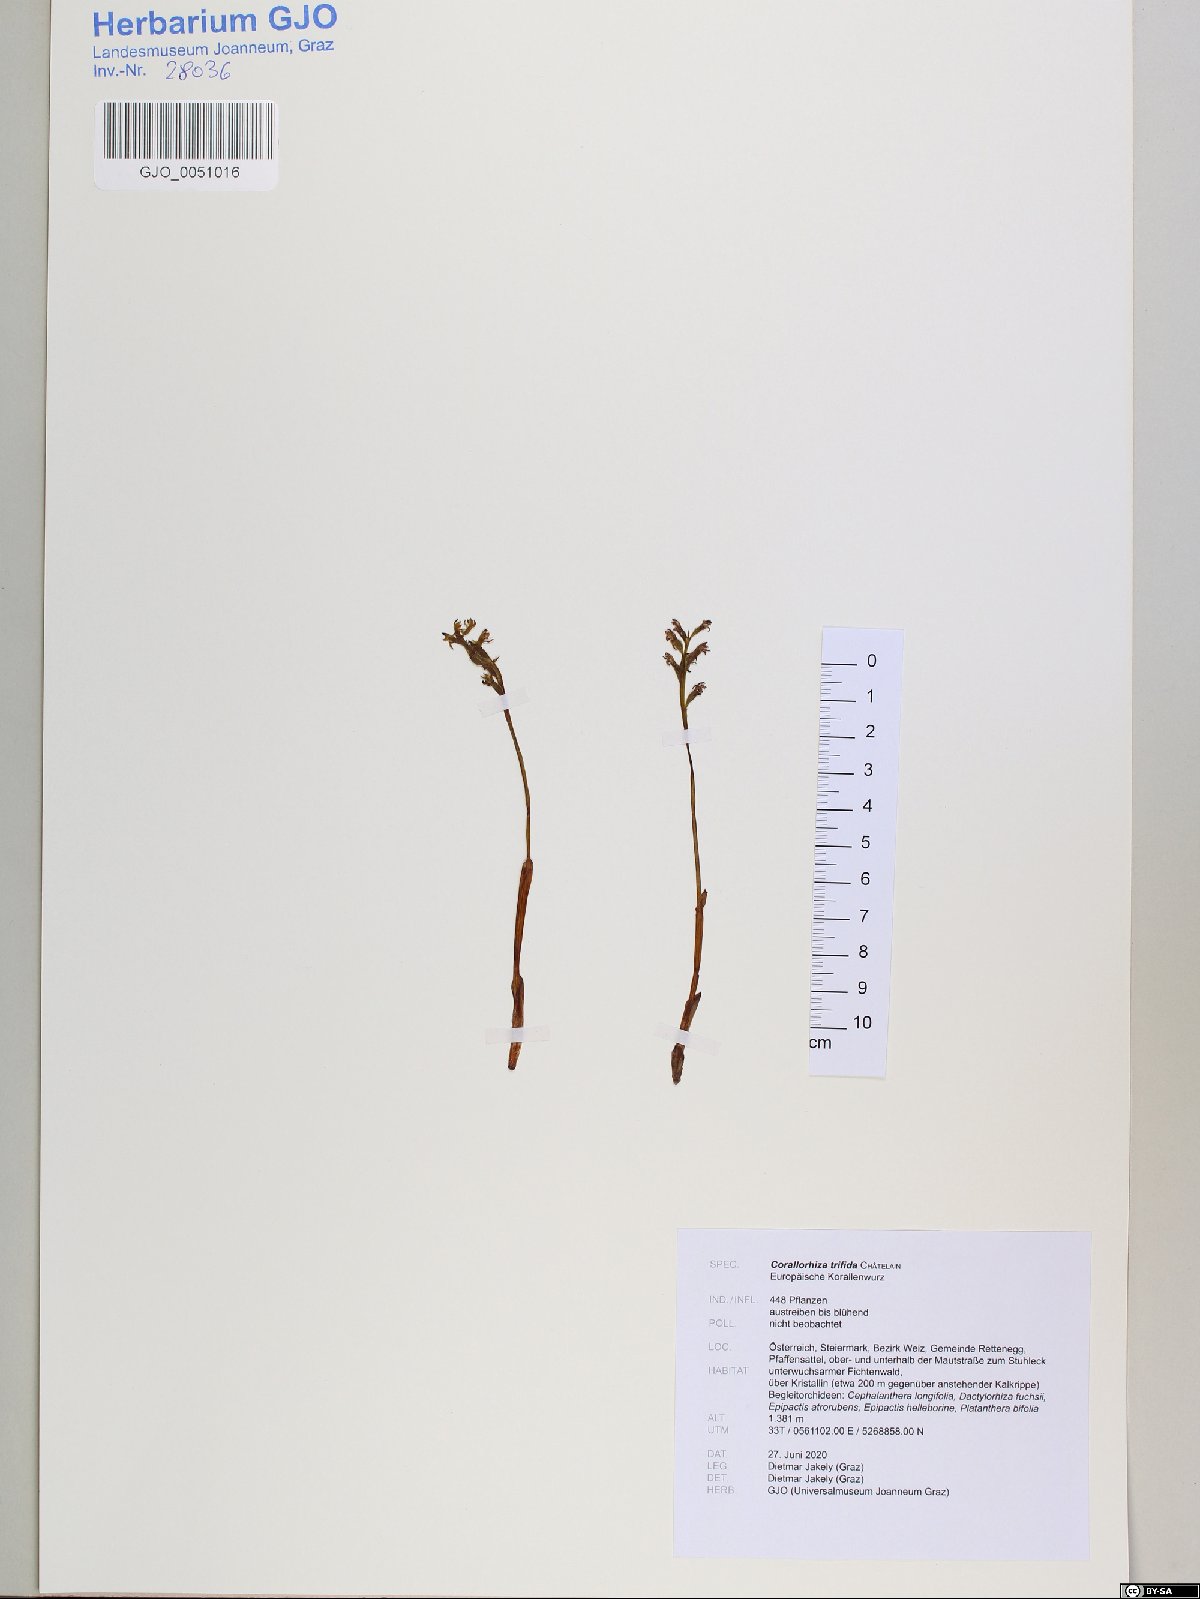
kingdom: Plantae
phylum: Tracheophyta
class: Liliopsida
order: Asparagales
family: Orchidaceae
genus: Corallorhiza
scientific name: Corallorhiza trifida
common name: Yellow coralroot
